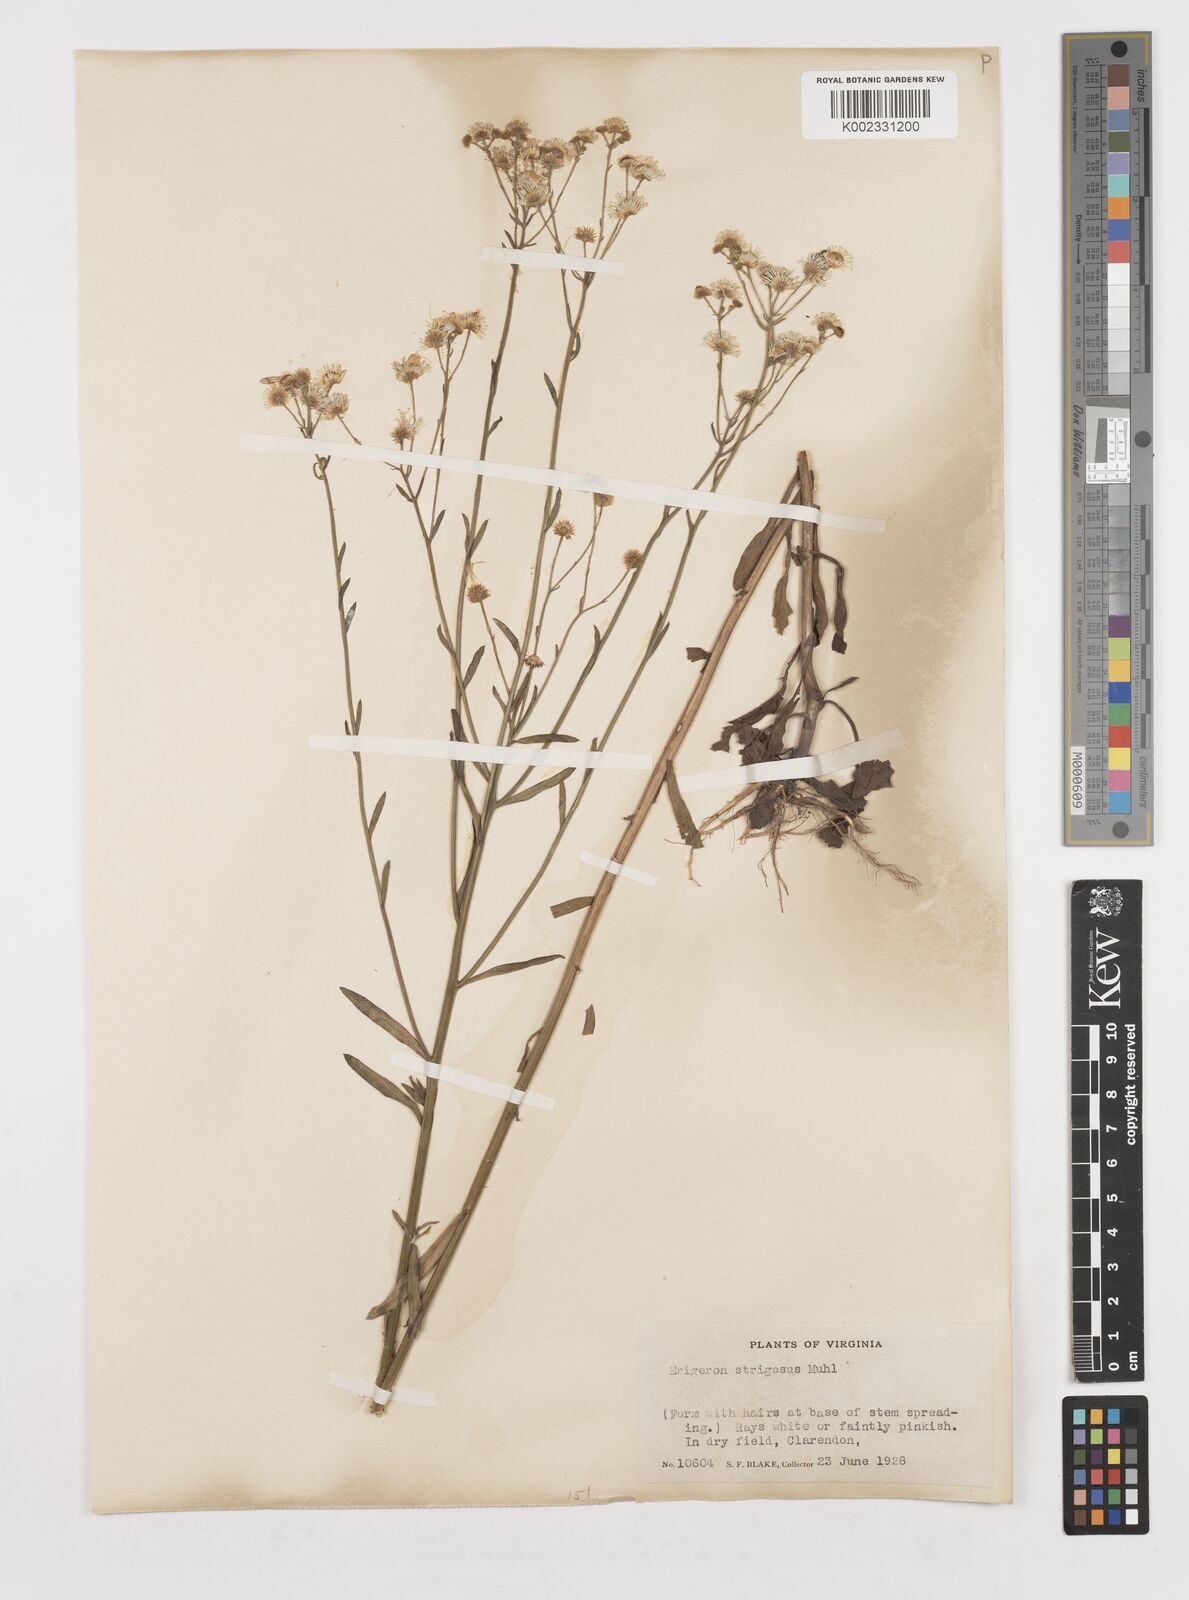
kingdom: Plantae
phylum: Tracheophyta
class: Magnoliopsida
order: Asterales
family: Asteraceae
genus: Erigeron
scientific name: Erigeron strigosus
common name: Common eastern fleabane
